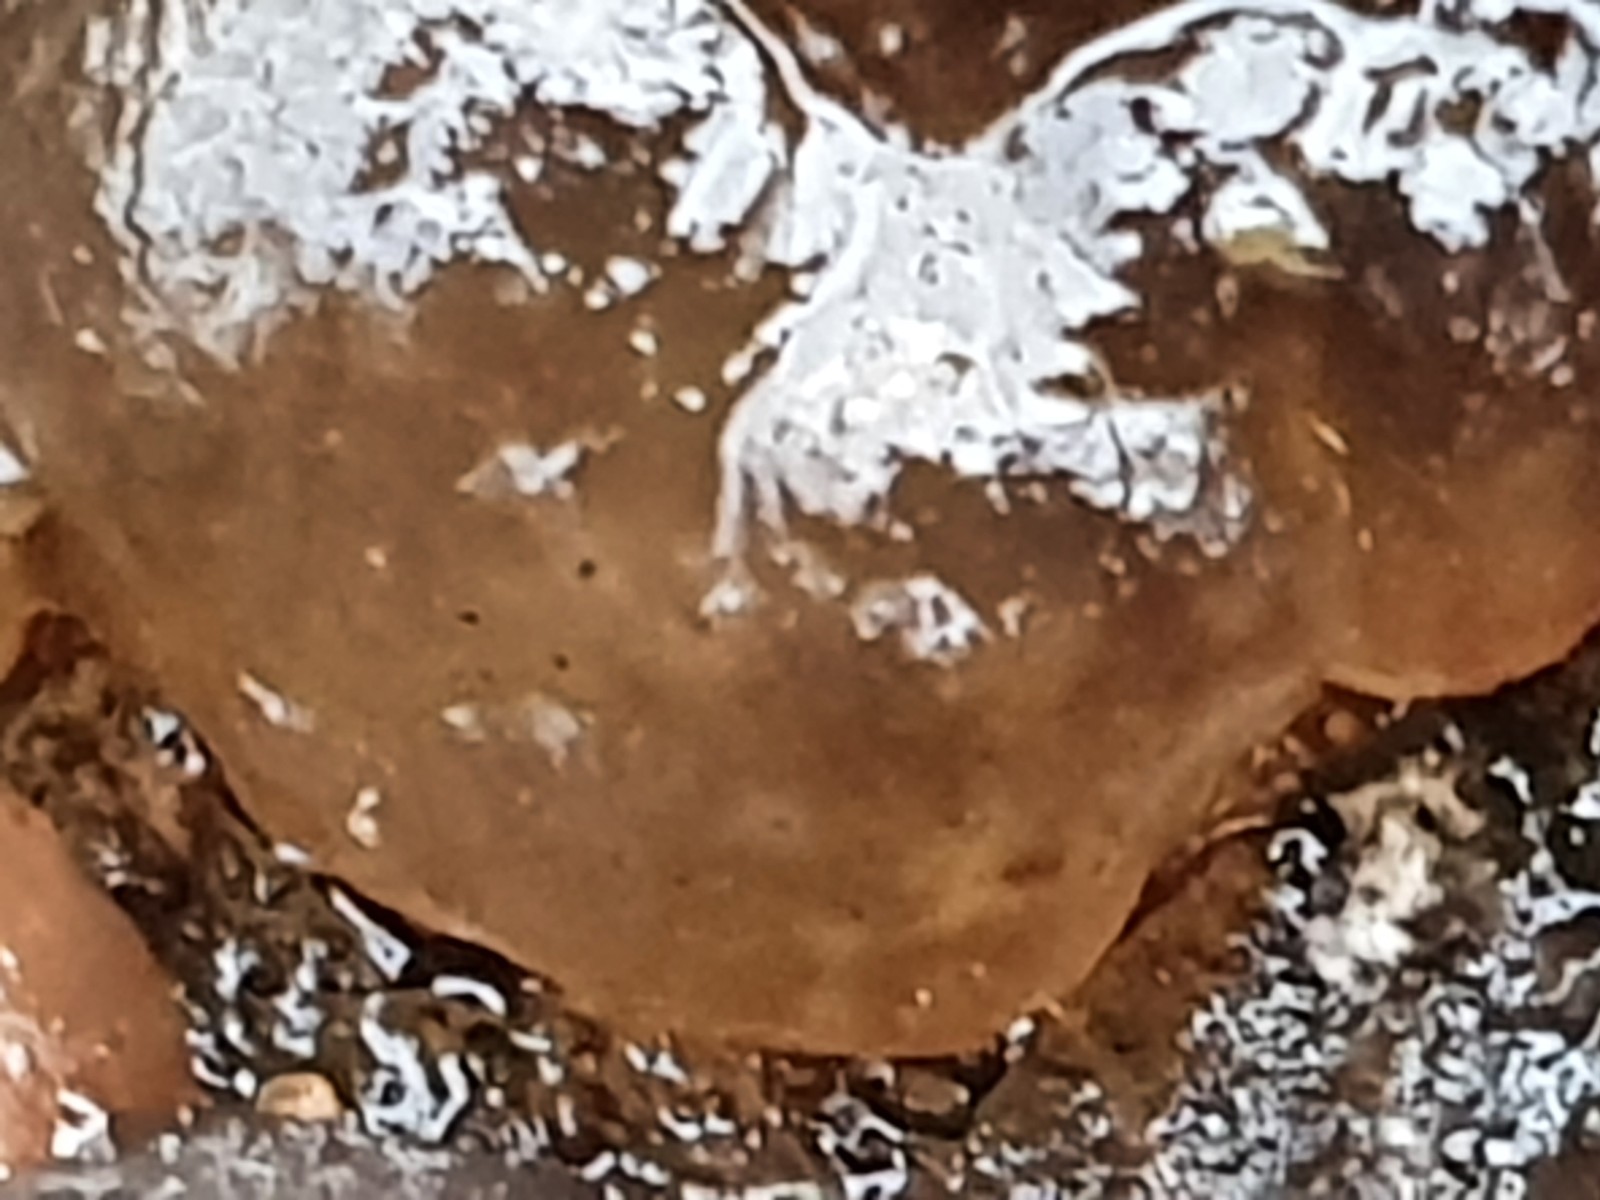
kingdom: Fungi
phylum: Basidiomycota
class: Agaricomycetes
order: Auriculariales
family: Auriculariaceae
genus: Exidia
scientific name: Exidia nigricans
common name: almindelig bævretop
